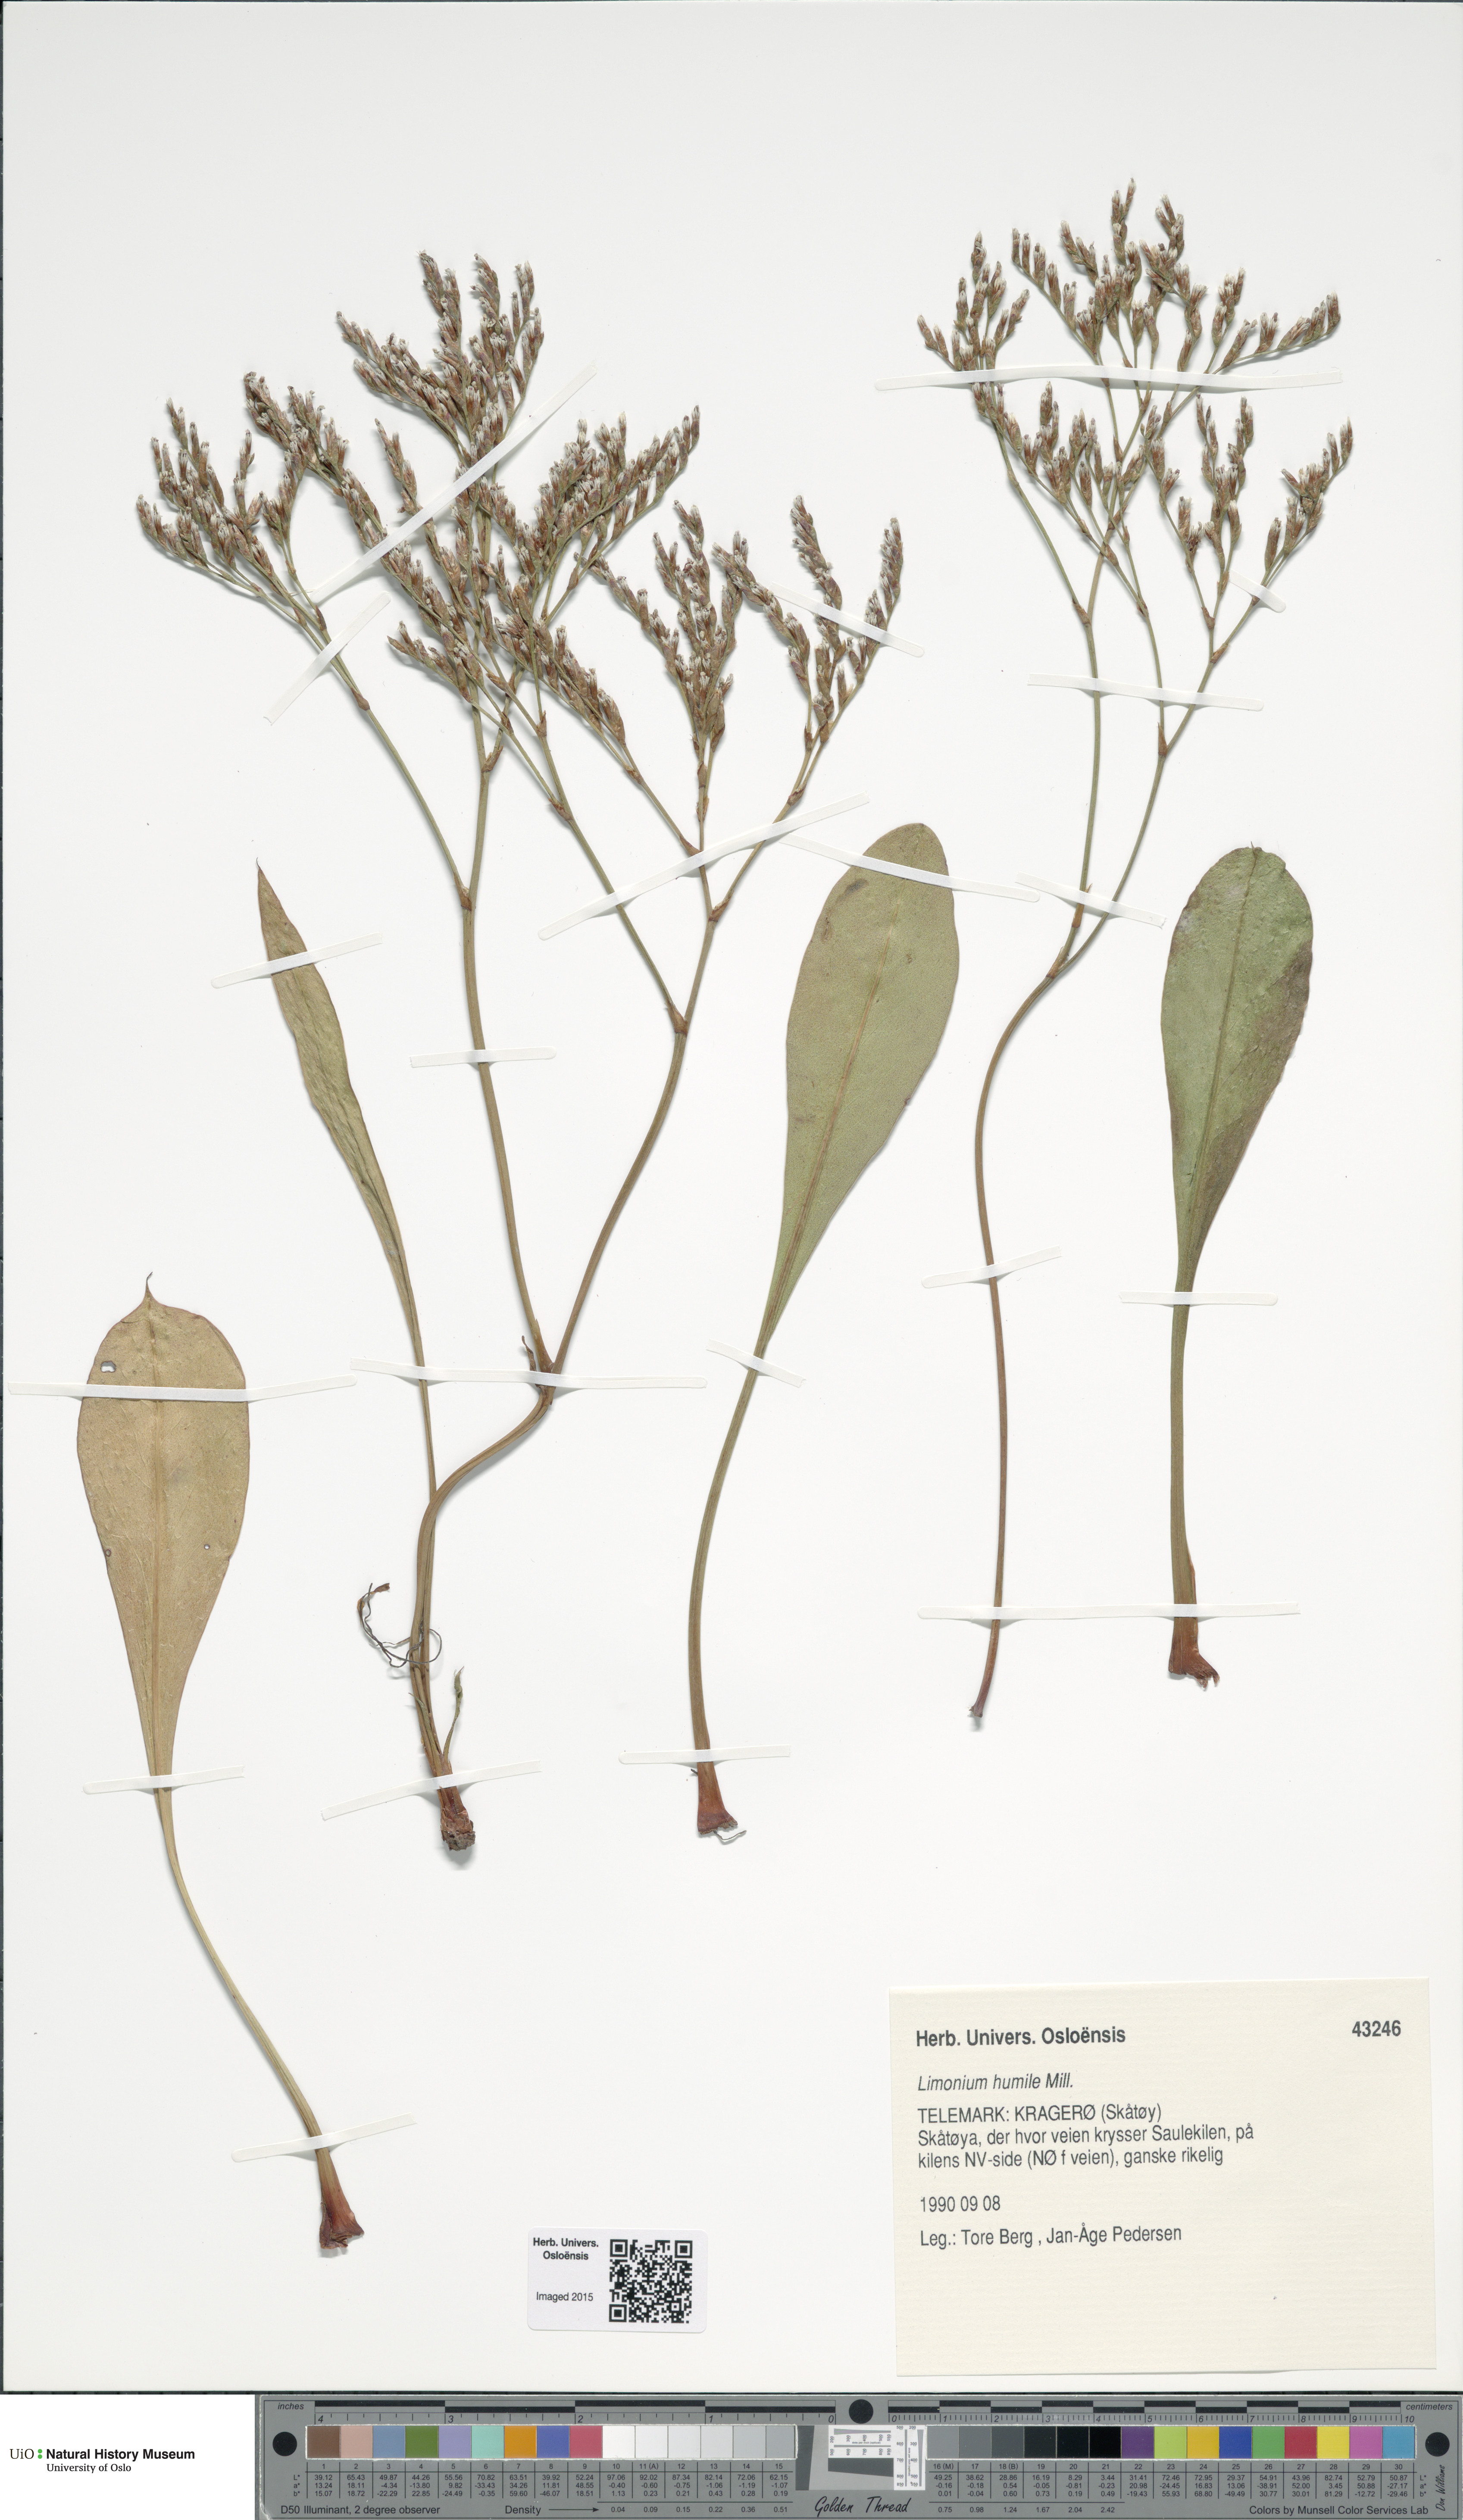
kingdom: Plantae
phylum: Tracheophyta
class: Magnoliopsida
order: Caryophyllales
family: Plumbaginaceae
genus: Limonium
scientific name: Limonium humile
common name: Lax-flowered sea-lavender
